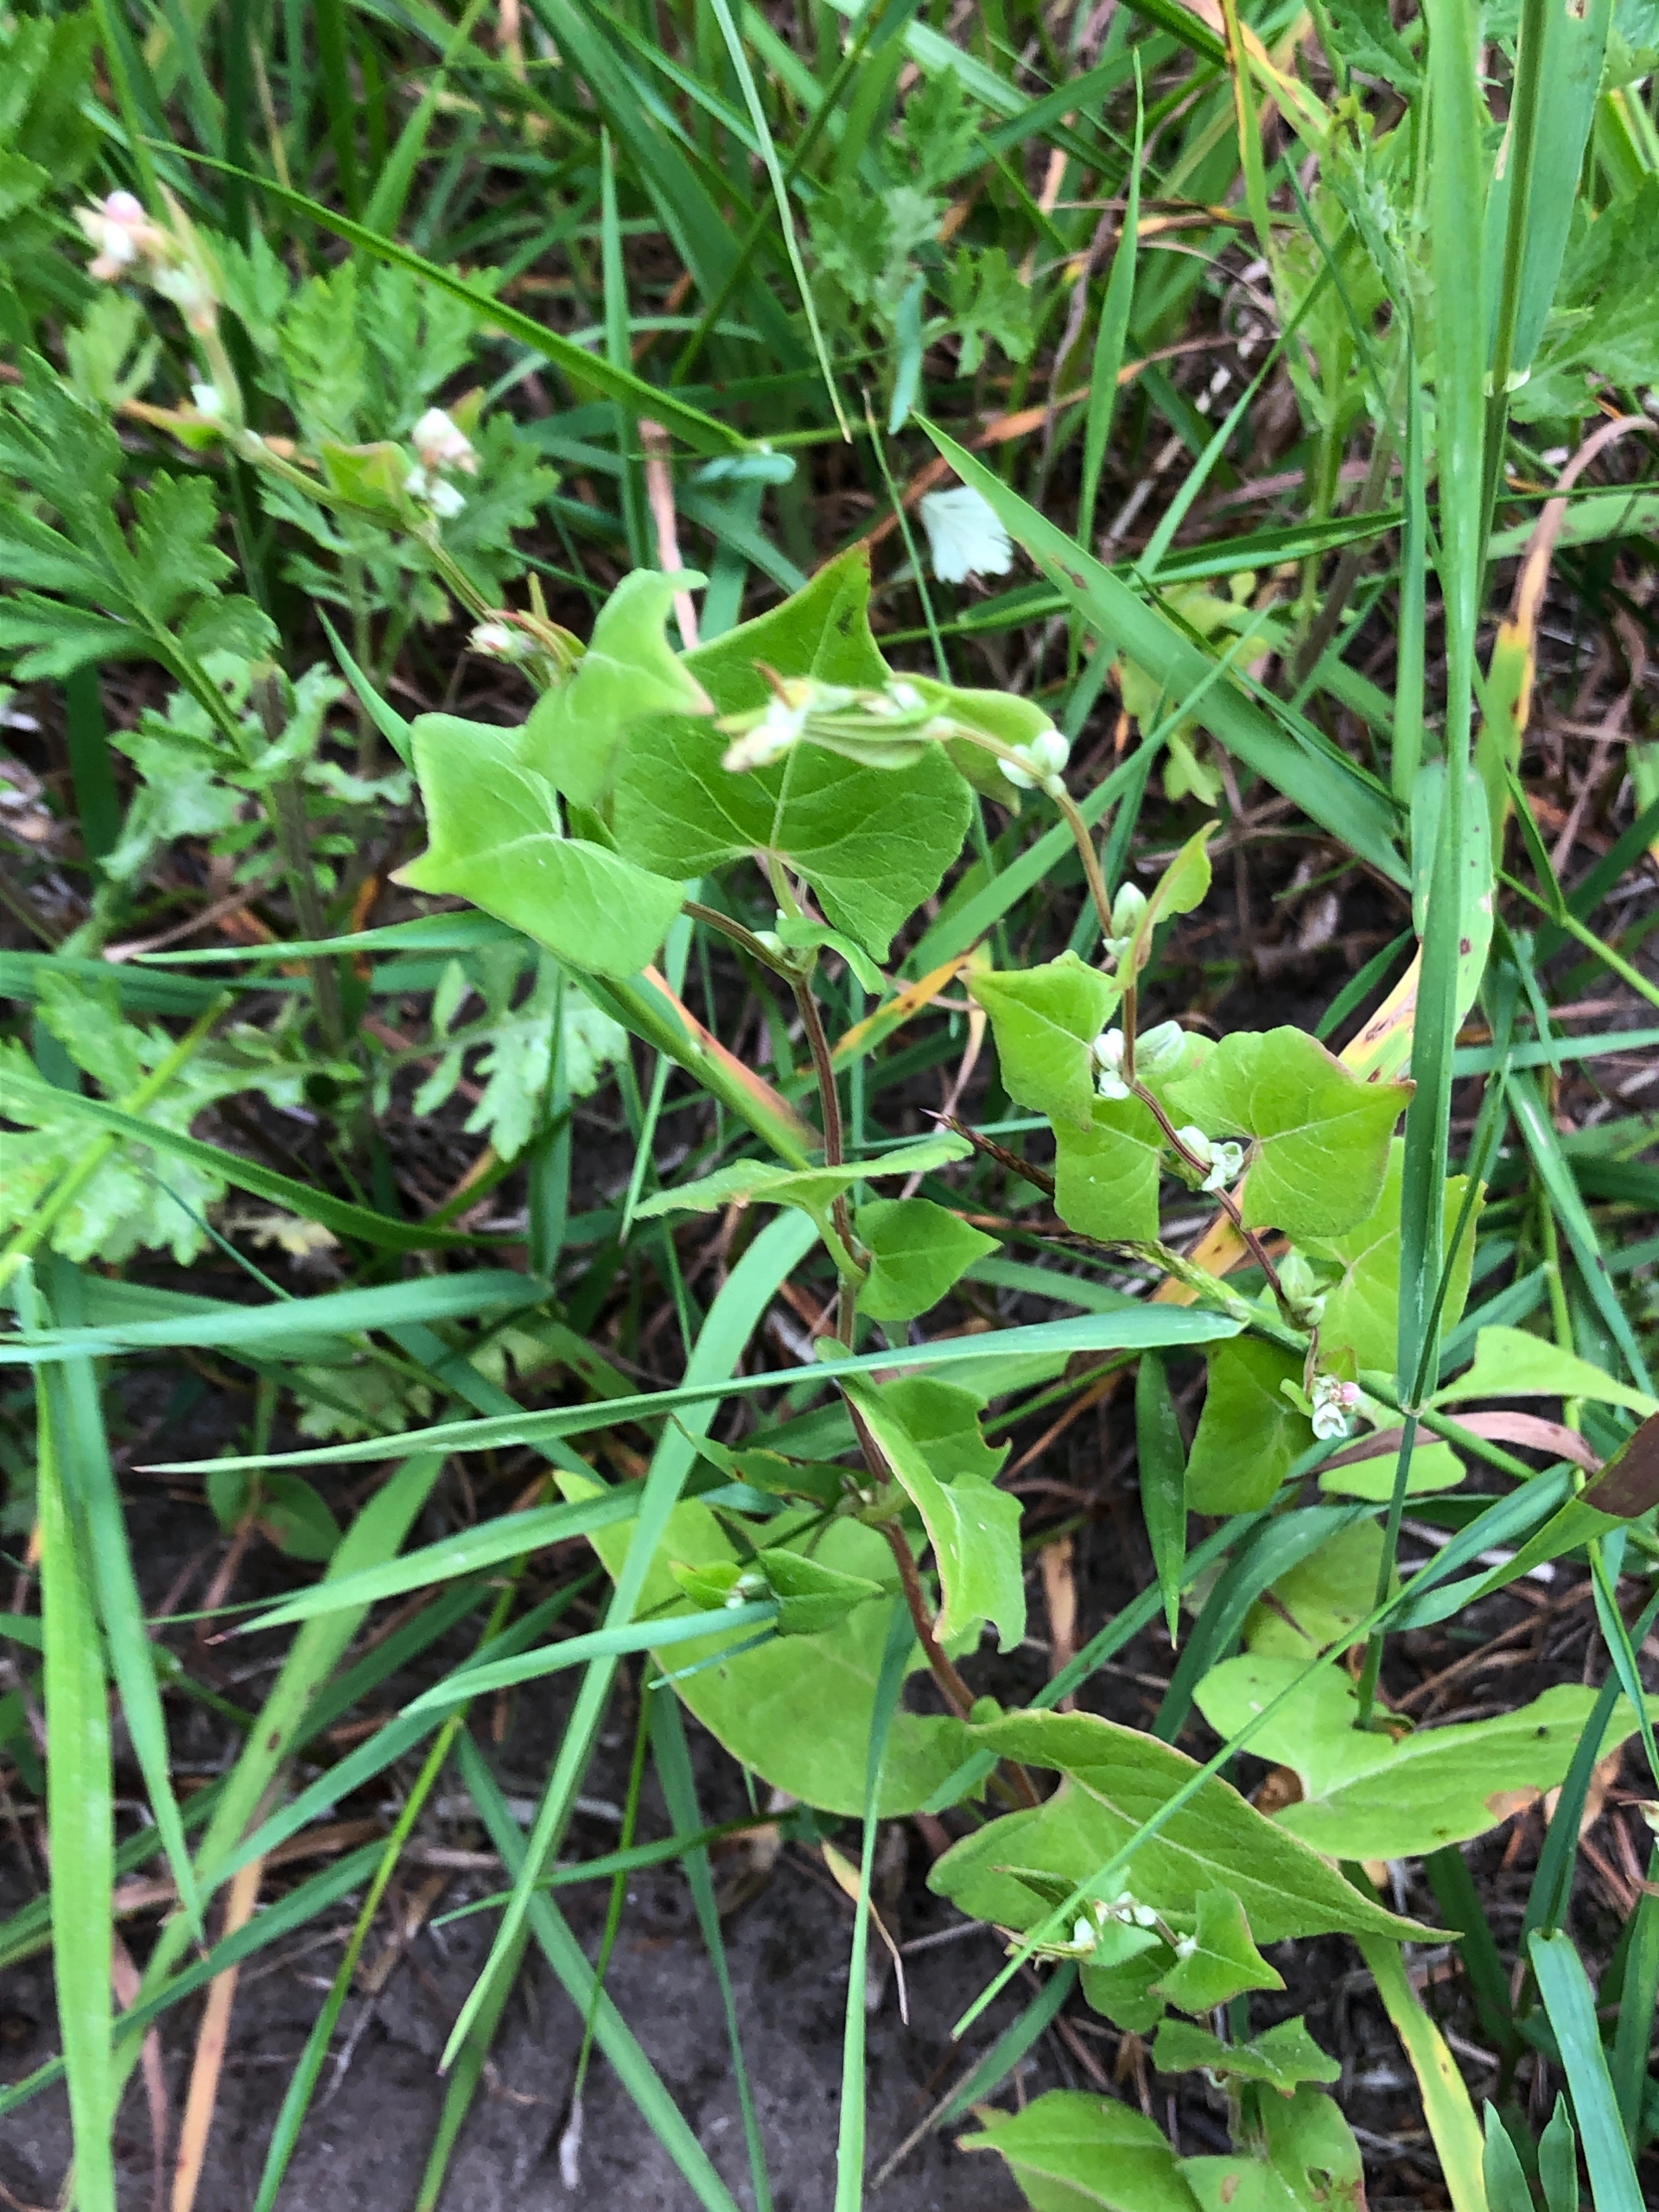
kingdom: Plantae
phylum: Tracheophyta
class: Magnoliopsida
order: Caryophyllales
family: Polygonaceae
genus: Fallopia
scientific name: Fallopia convolvulus
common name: Snerle-pileurt
